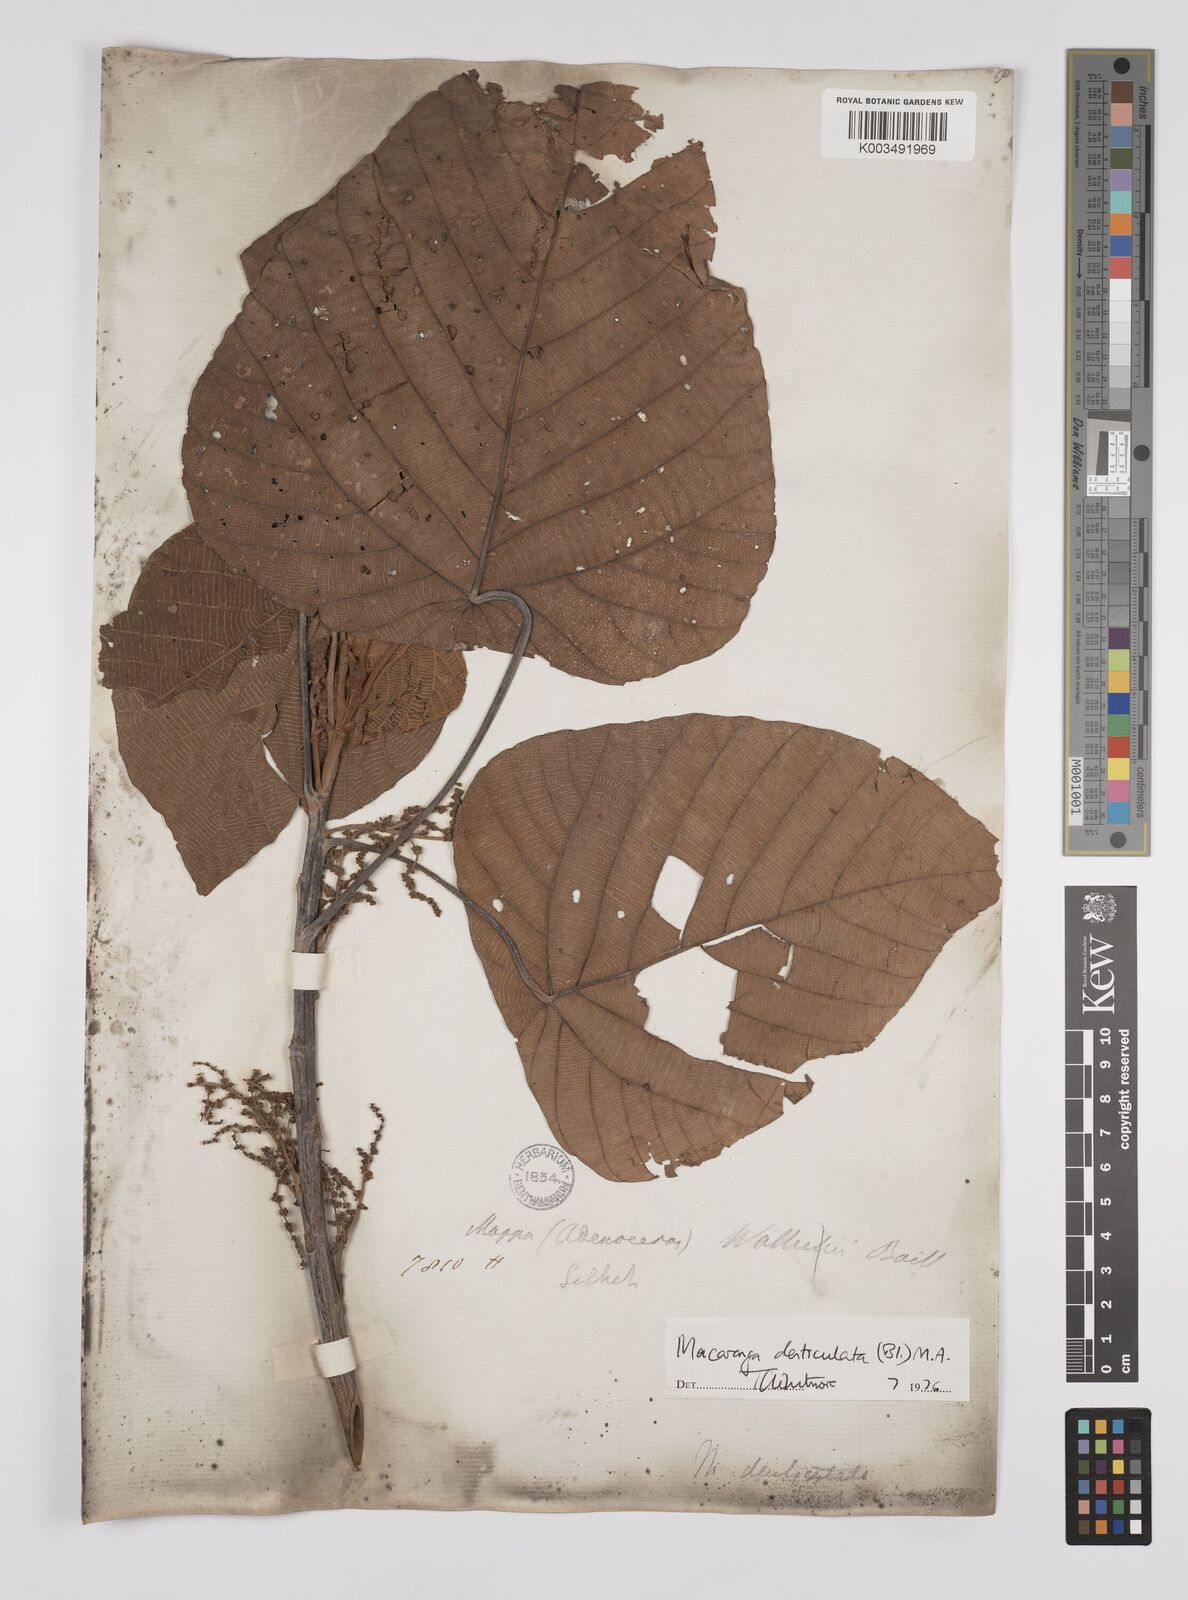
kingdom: Plantae
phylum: Tracheophyta
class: Magnoliopsida
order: Malpighiales
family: Euphorbiaceae
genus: Macaranga
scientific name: Macaranga denticulata
